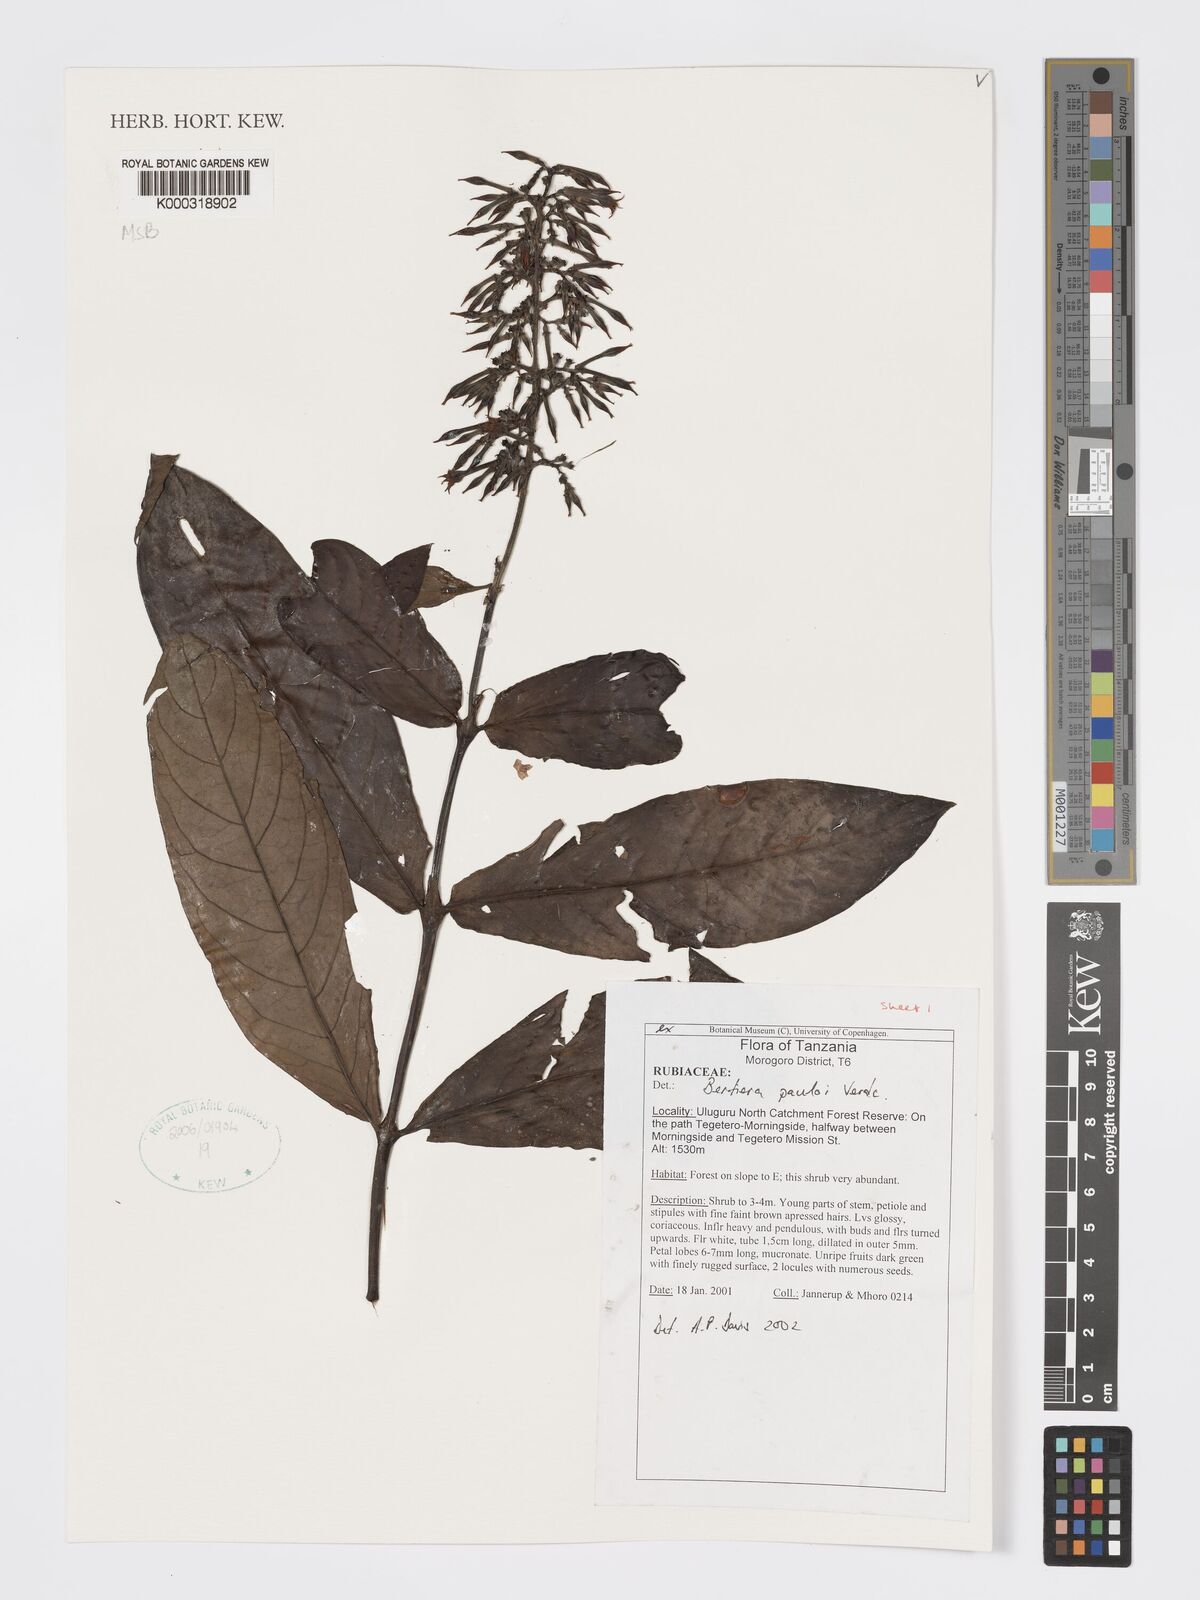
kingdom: Plantae
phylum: Tracheophyta
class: Magnoliopsida
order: Gentianales
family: Rubiaceae
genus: Bertiera
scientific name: Bertiera pauloi
